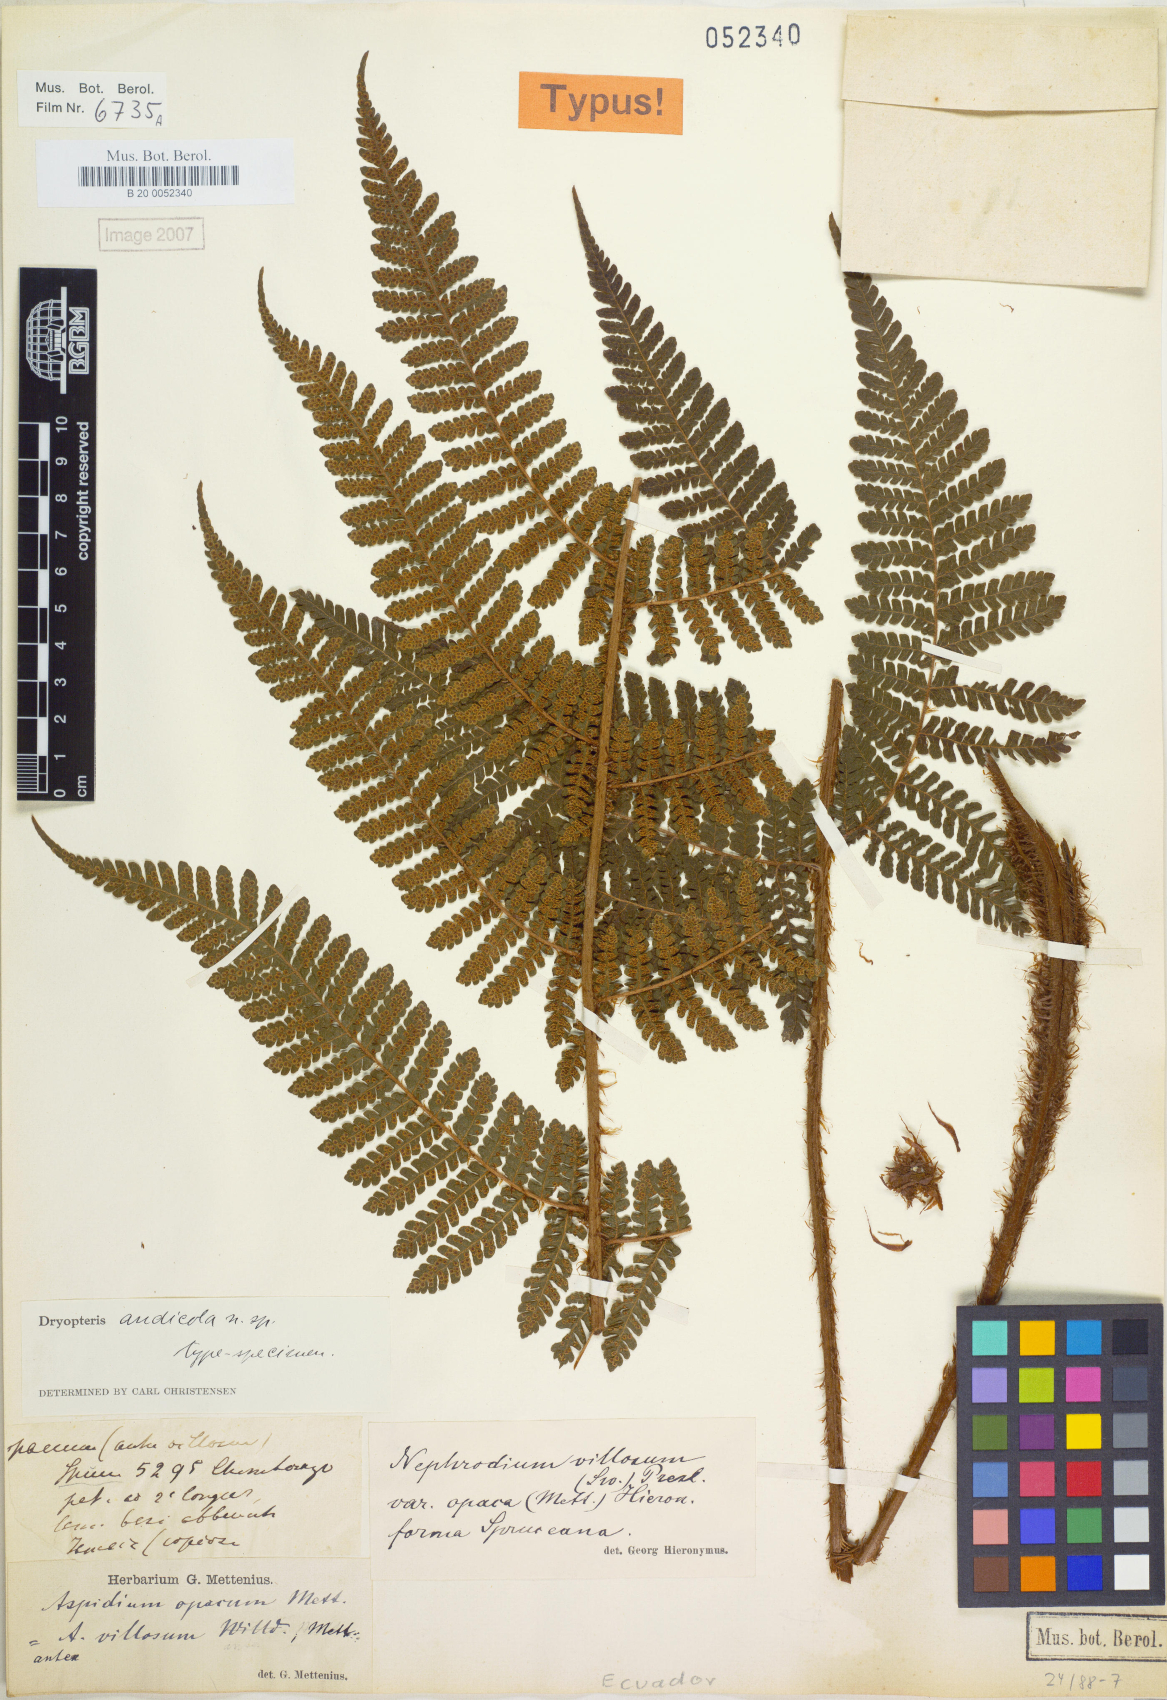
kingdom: Plantae
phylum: Tracheophyta
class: Polypodiopsida
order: Polypodiales
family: Dryopteridaceae
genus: Megalastrum
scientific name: Megalastrum andicola
